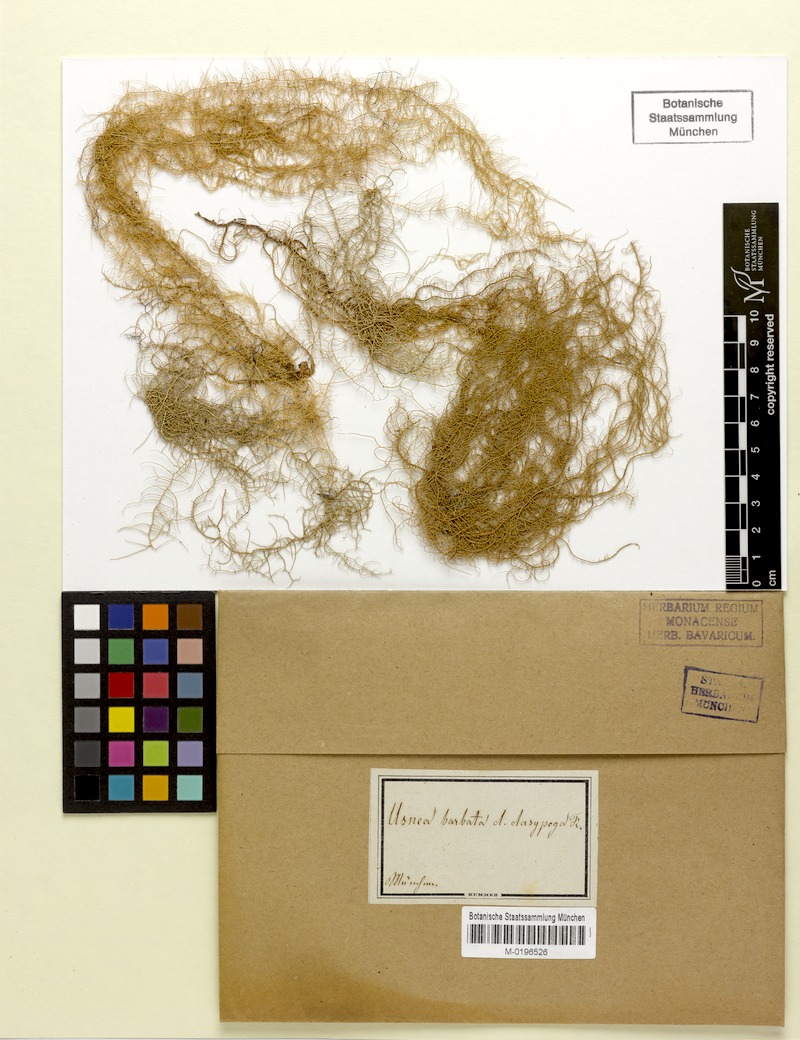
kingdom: Fungi
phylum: Ascomycota
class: Lecanoromycetes
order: Lecanorales
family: Parmeliaceae
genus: Usnea
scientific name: Usnea dasopoga
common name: Fishbone beard lichen
